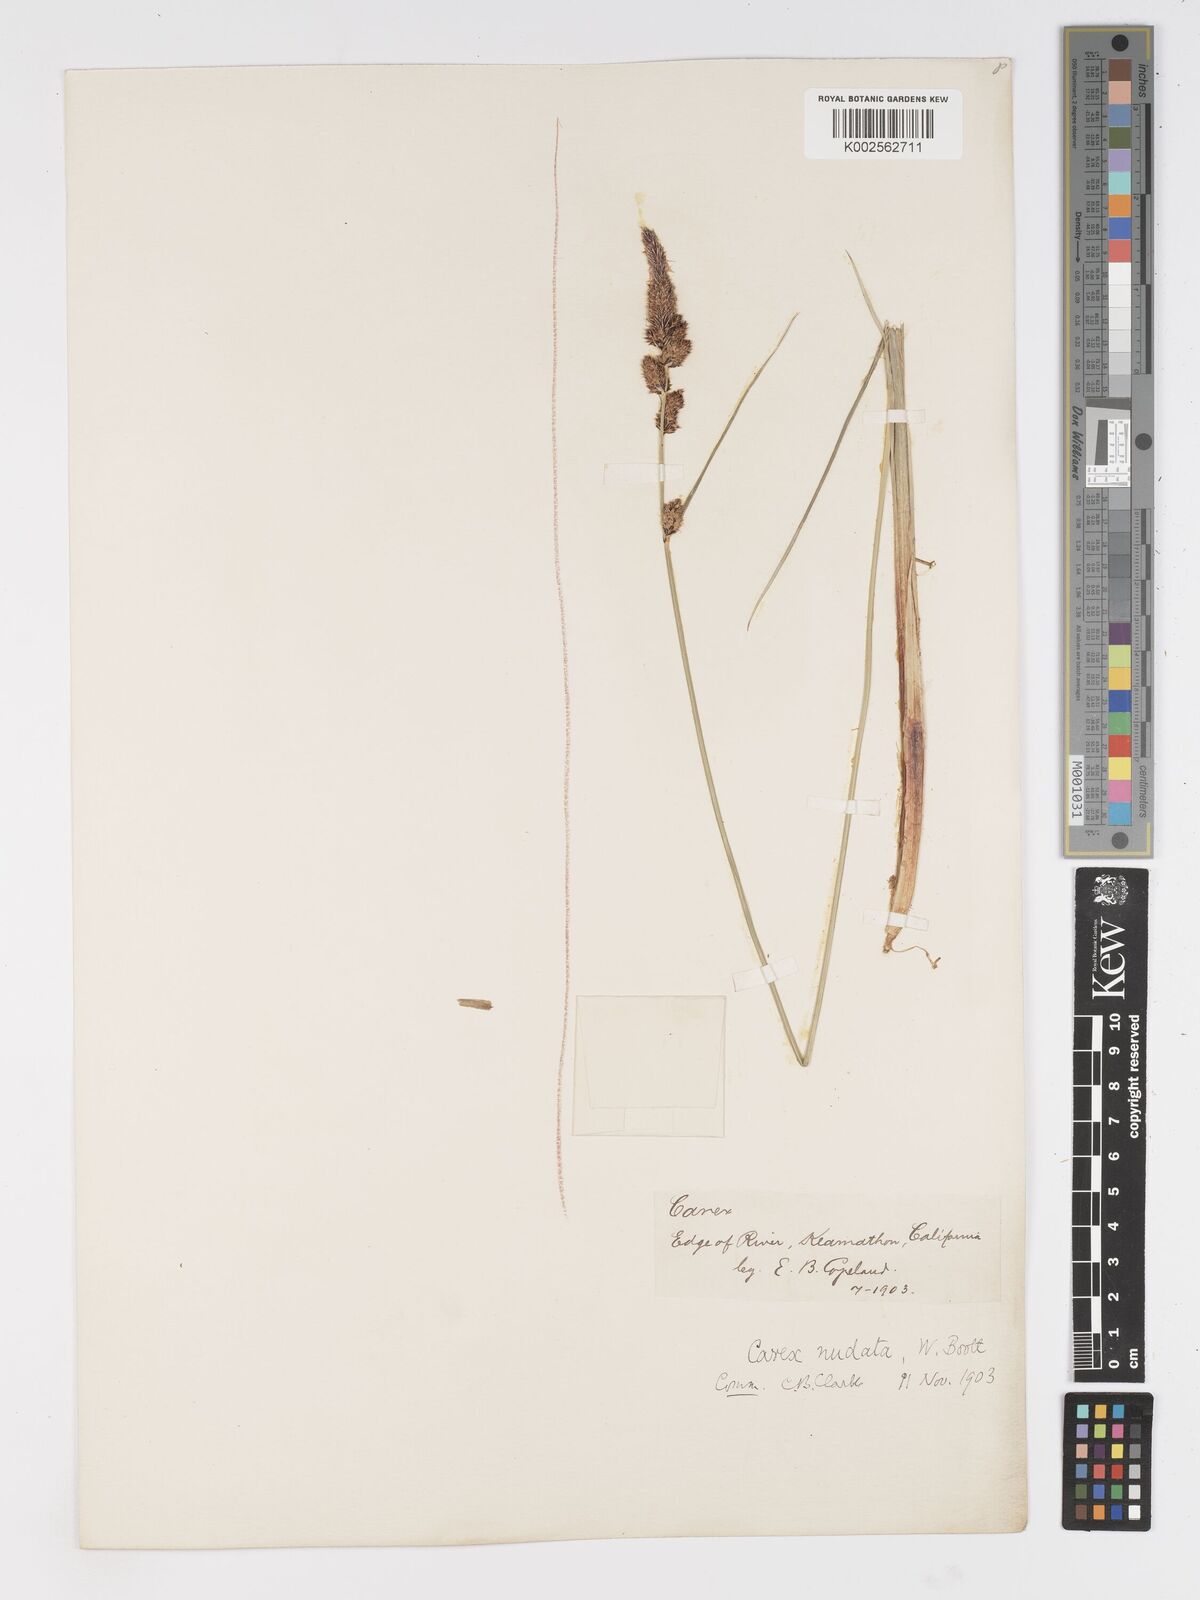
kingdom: Plantae
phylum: Tracheophyta
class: Liliopsida
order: Poales
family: Cyperaceae
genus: Carex
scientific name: Carex nudata
